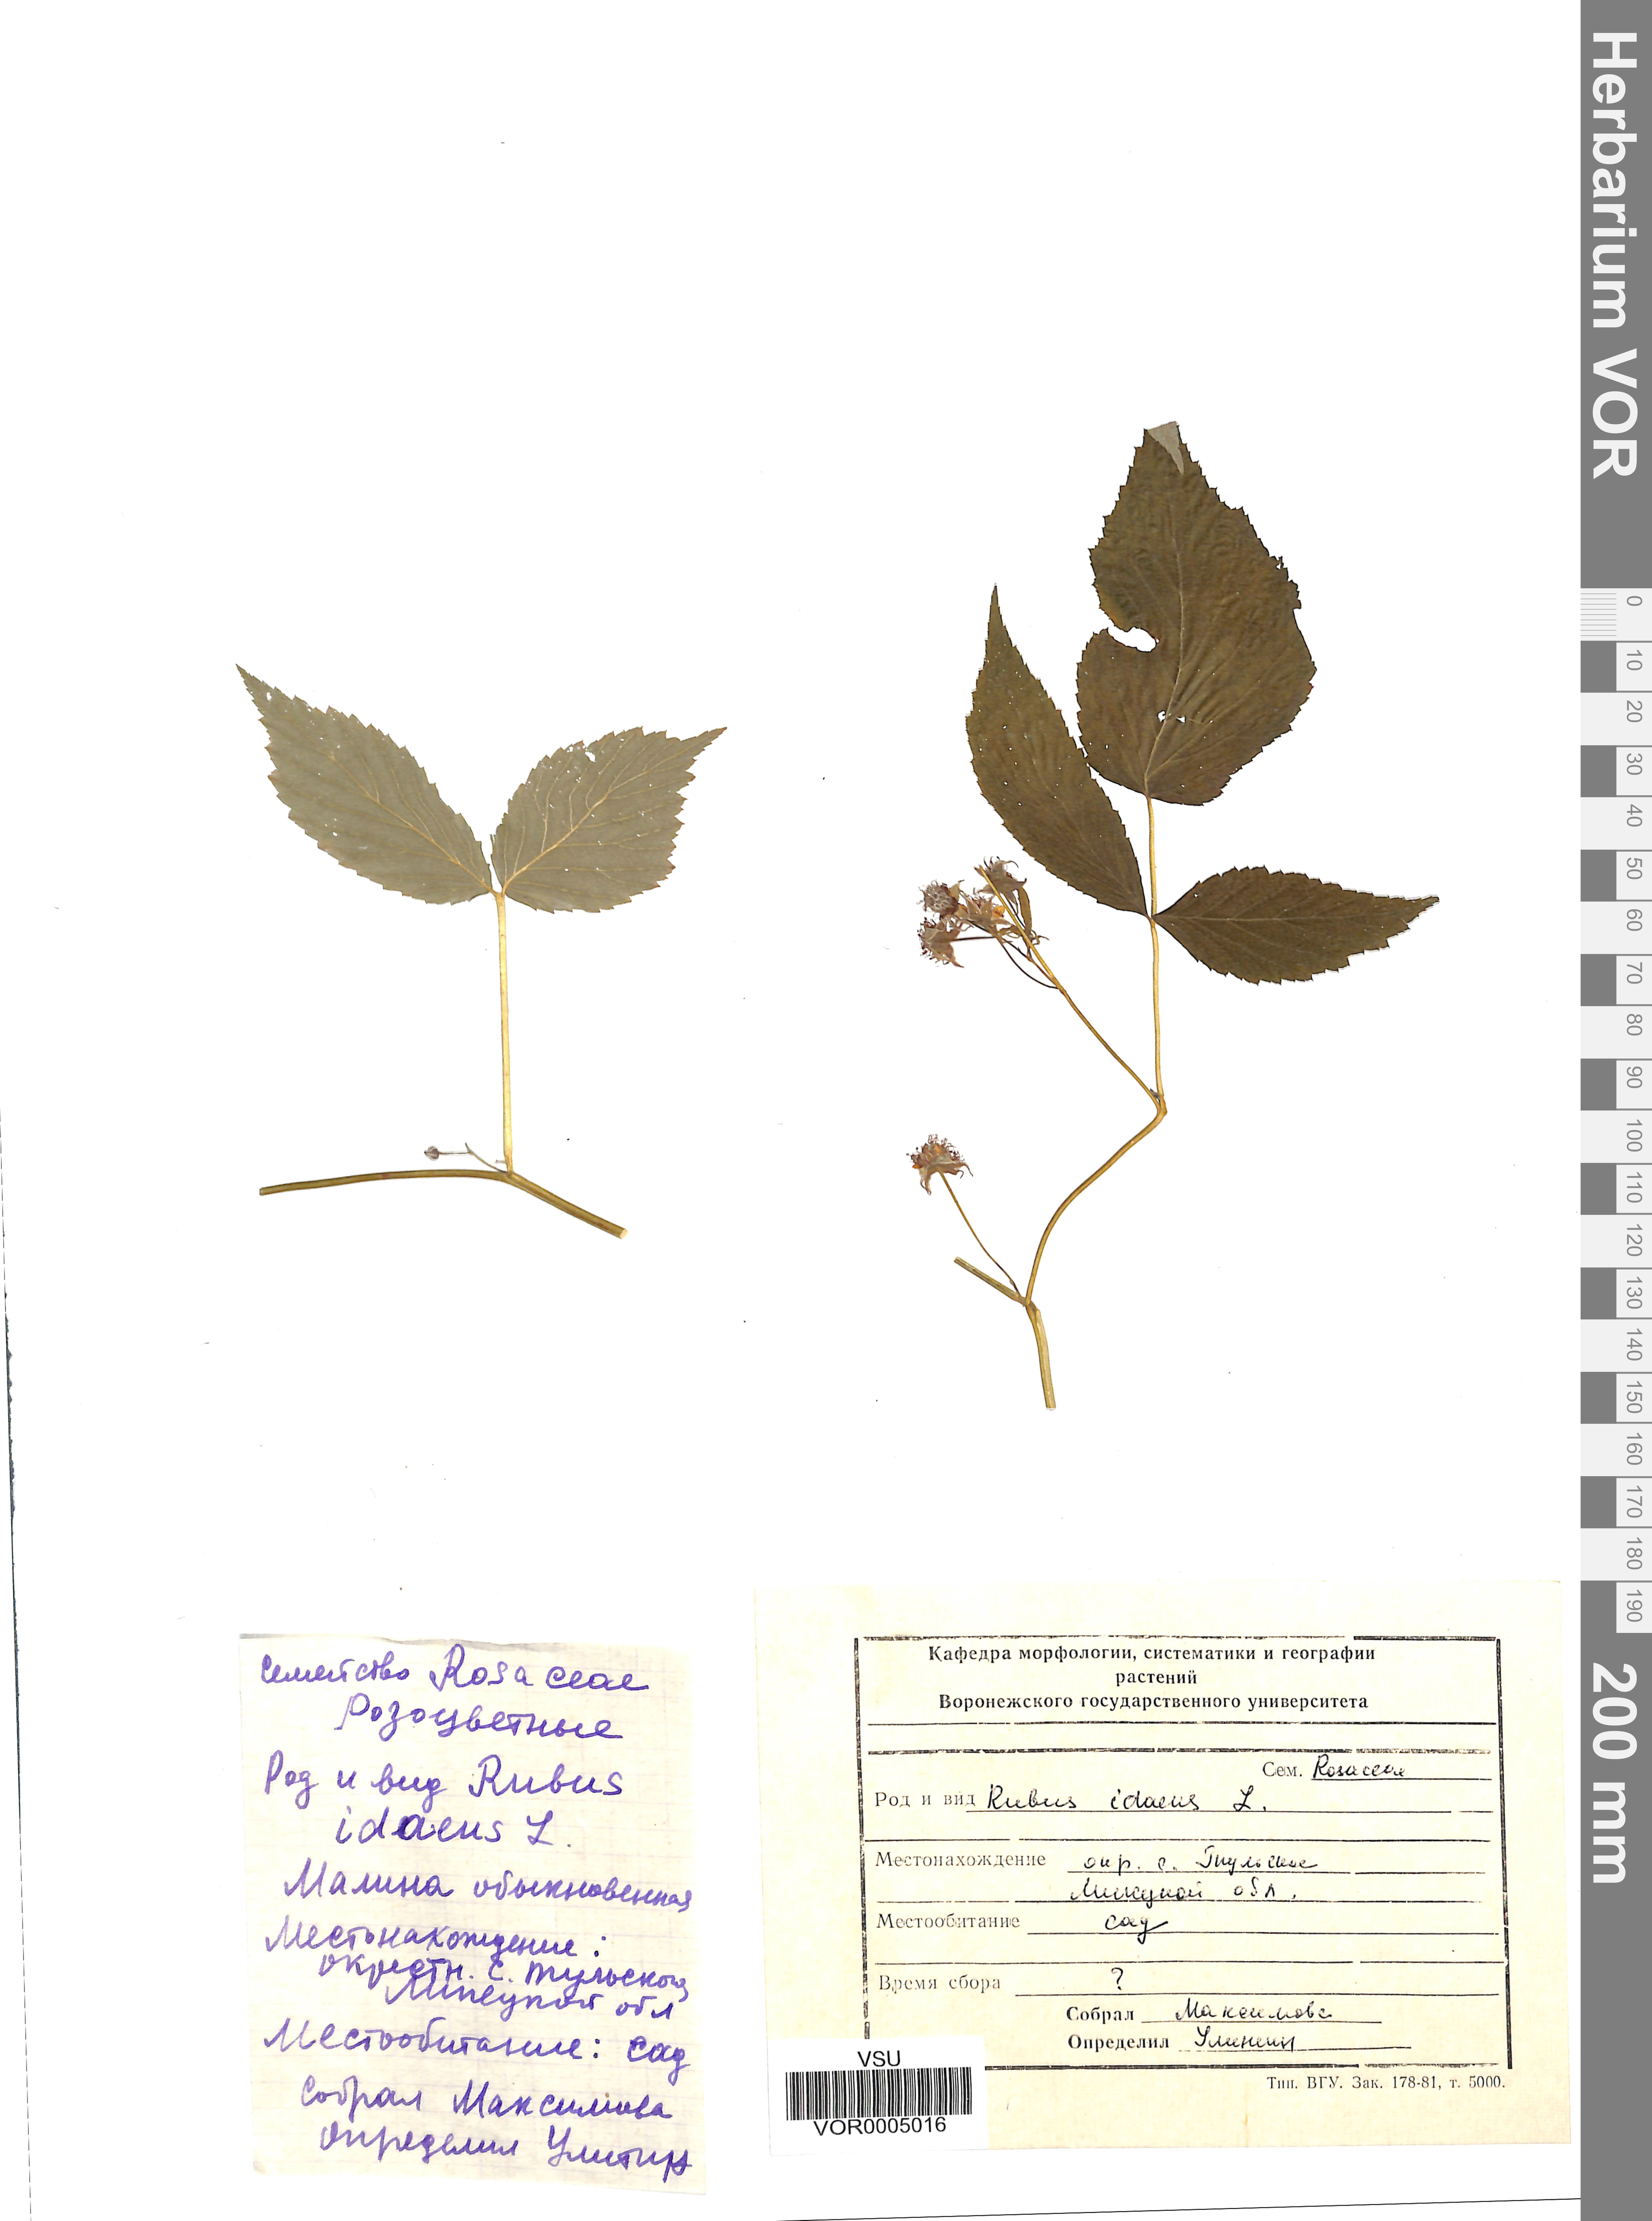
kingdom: Plantae
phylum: Tracheophyta
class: Magnoliopsida
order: Rosales
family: Rosaceae
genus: Rubus
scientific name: Rubus idaeus
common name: Raspberry
